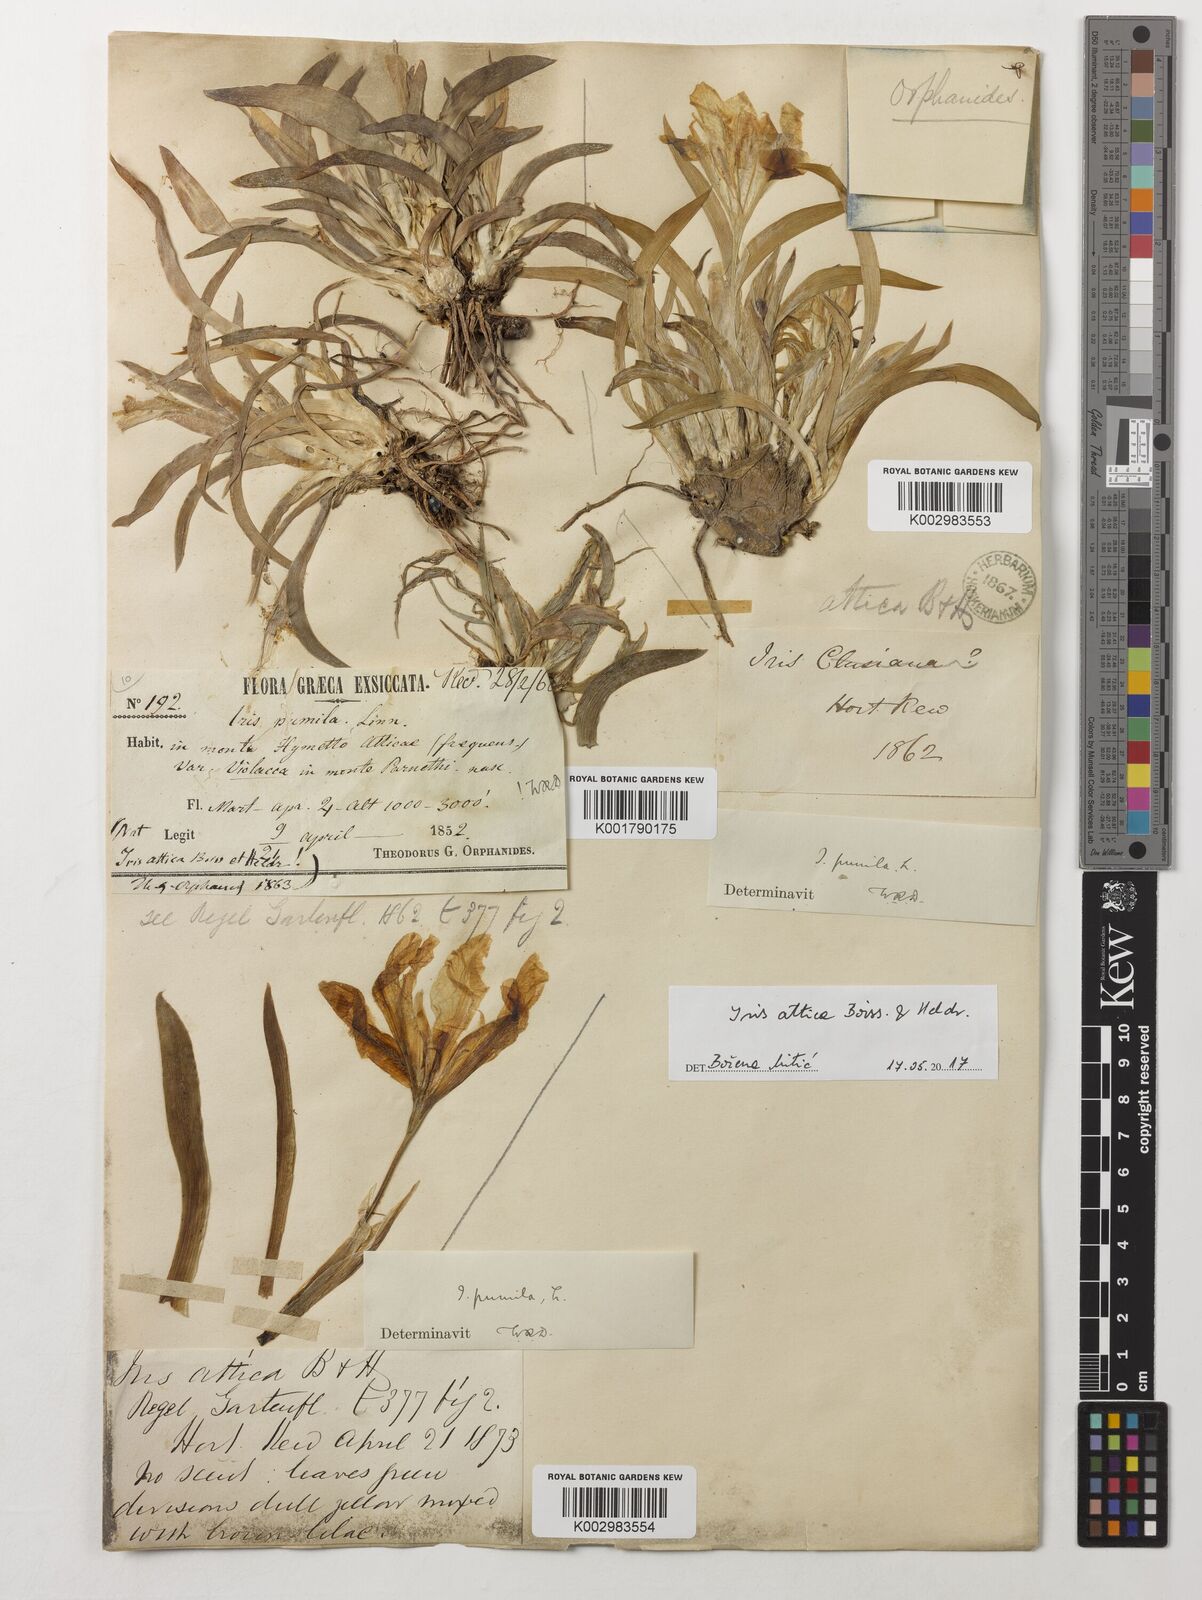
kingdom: Plantae
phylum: Tracheophyta
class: Liliopsida
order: Asparagales
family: Iridaceae
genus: Iris
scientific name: Iris pumila
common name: Dwarf iris
